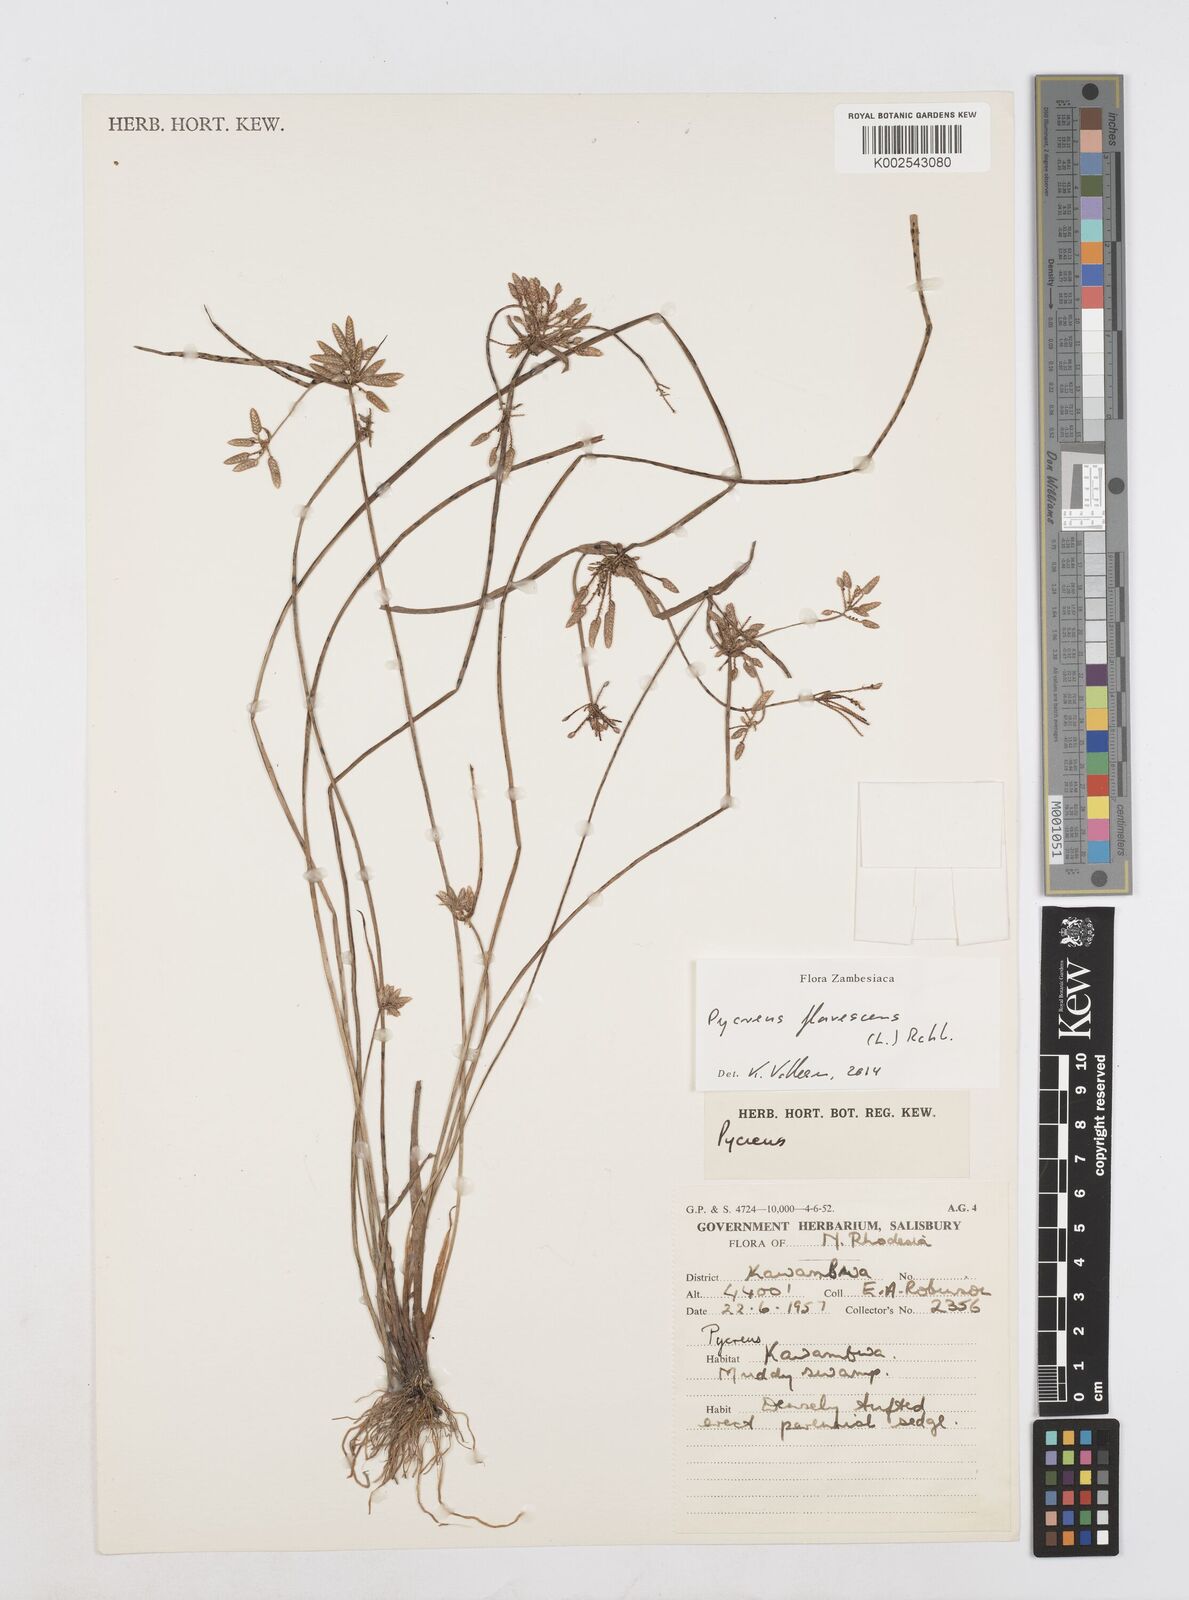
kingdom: Plantae
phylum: Tracheophyta
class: Liliopsida
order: Poales
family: Cyperaceae
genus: Cyperus
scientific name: Cyperus flavescens
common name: Yellow galingale
